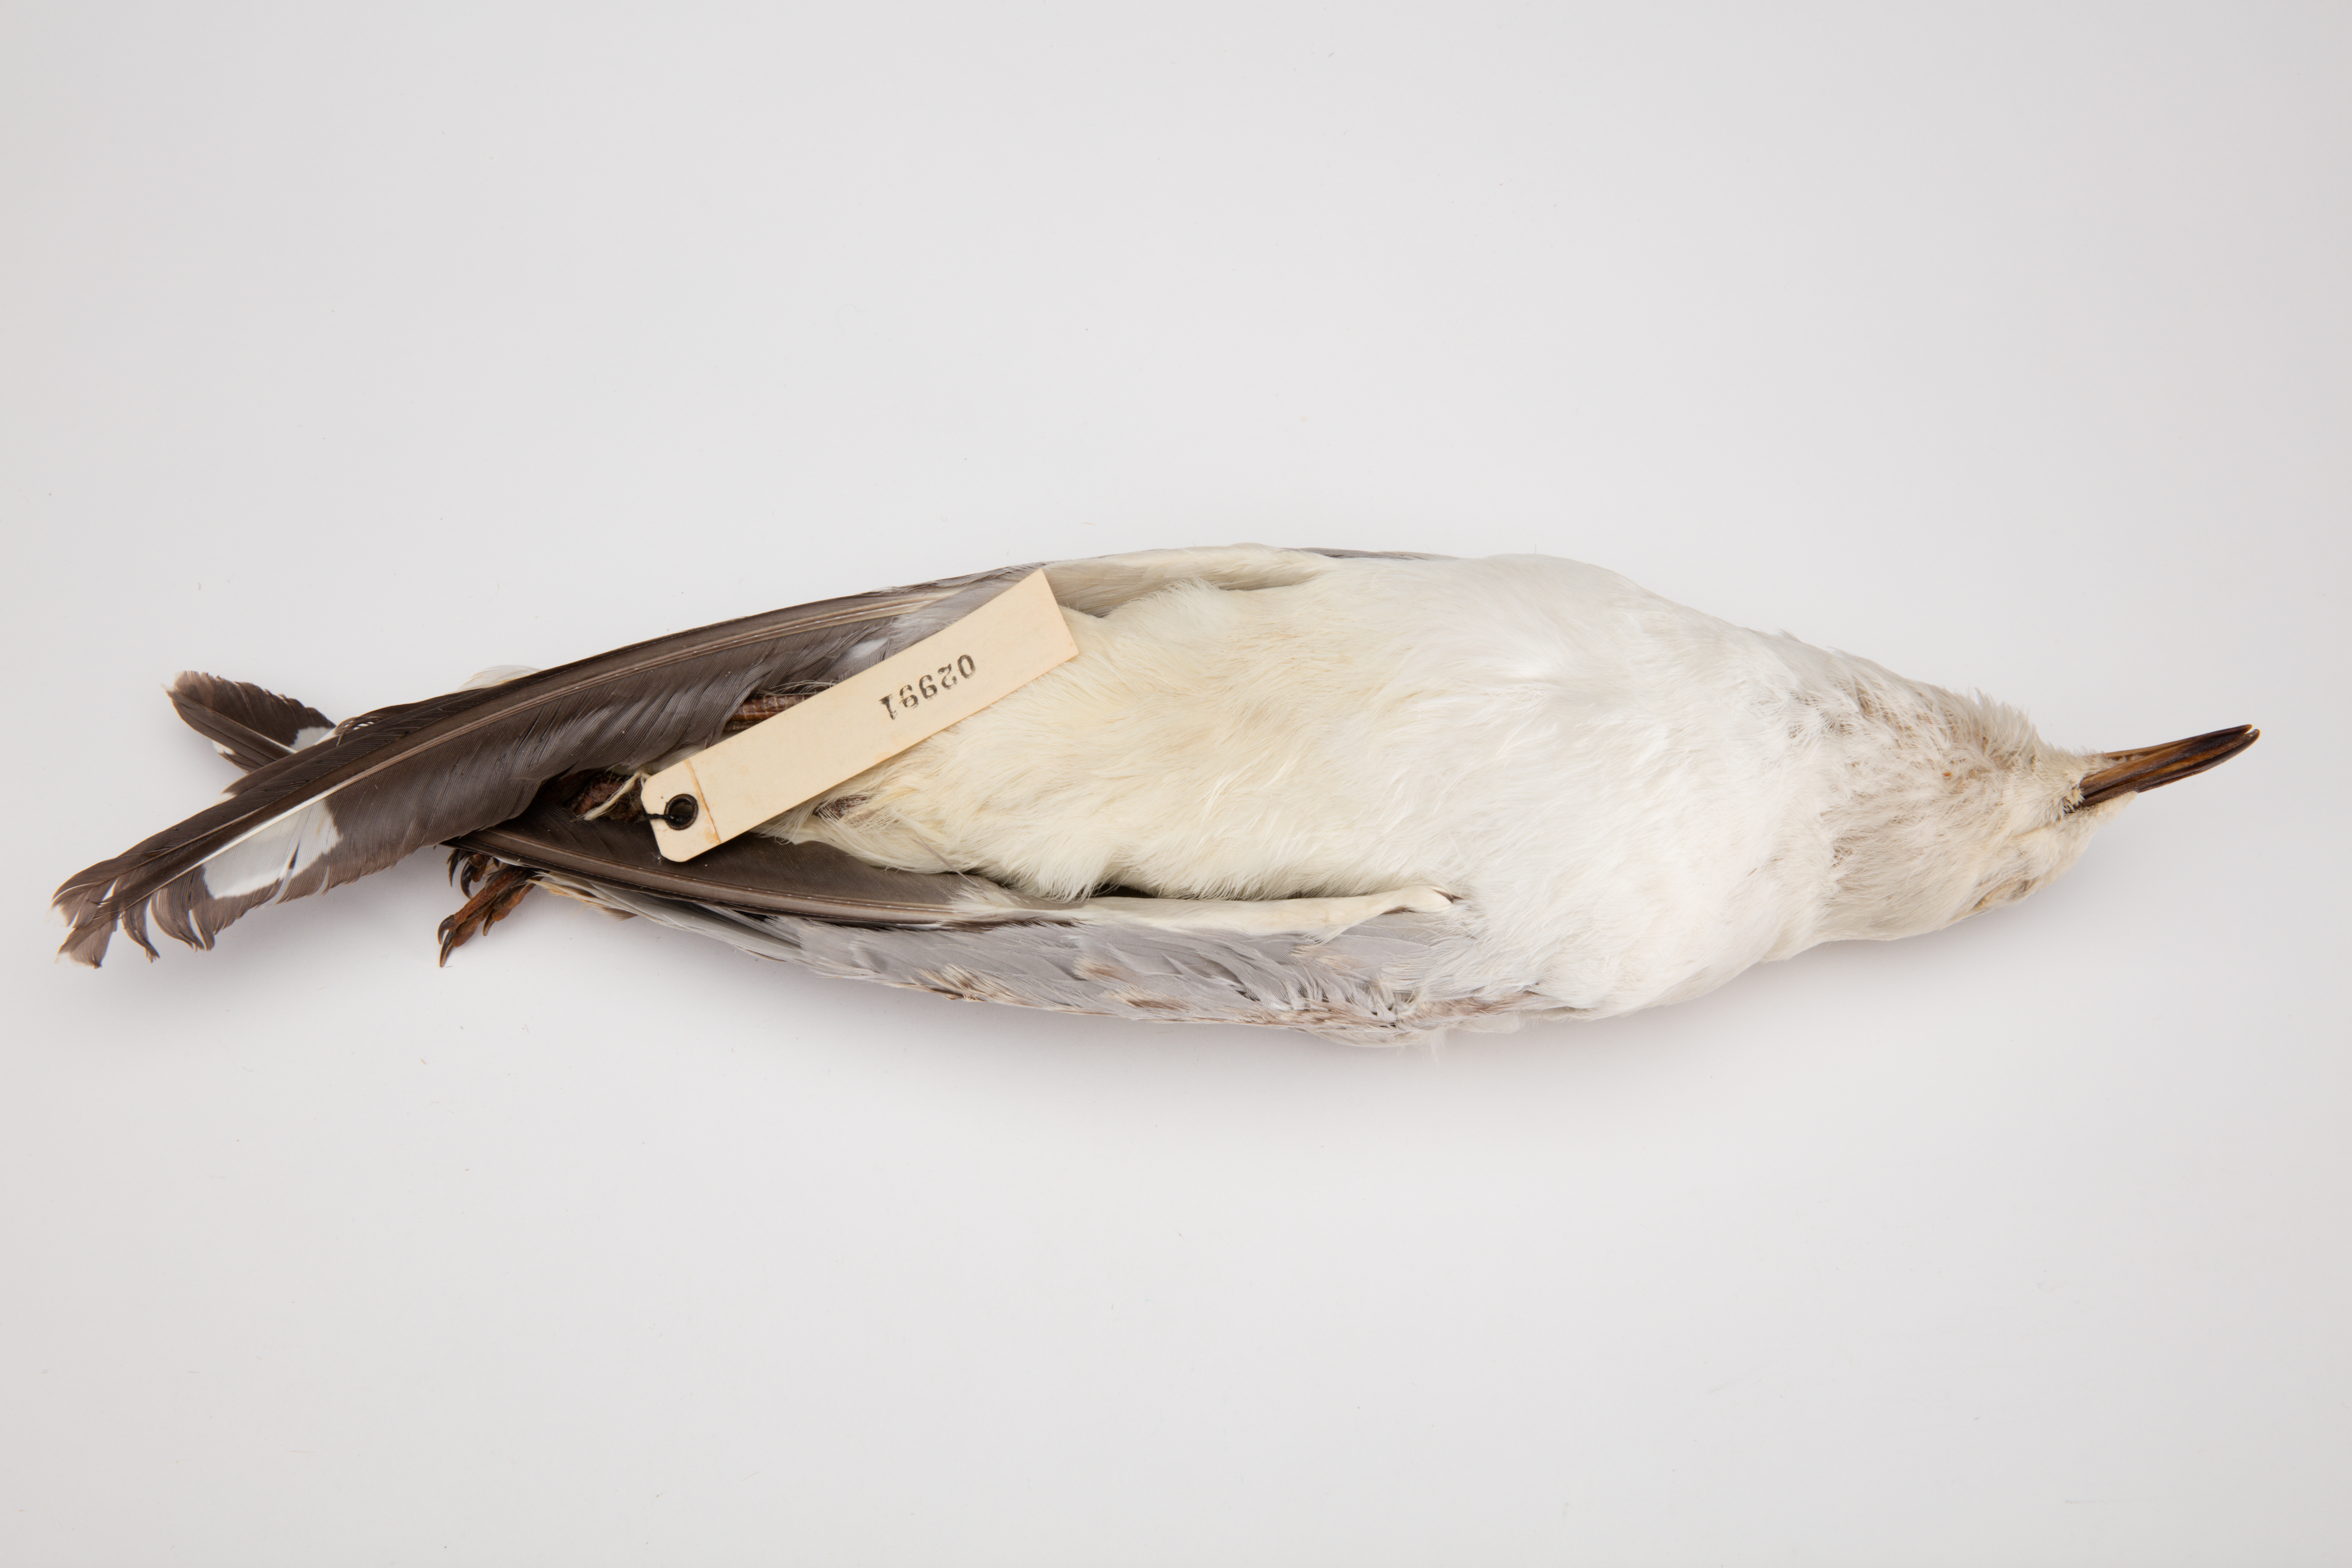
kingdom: Animalia
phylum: Chordata
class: Aves
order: Charadriiformes
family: Laridae
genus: Chroicocephalus
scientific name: Chroicocephalus novaehollandiae
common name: Silver gull
